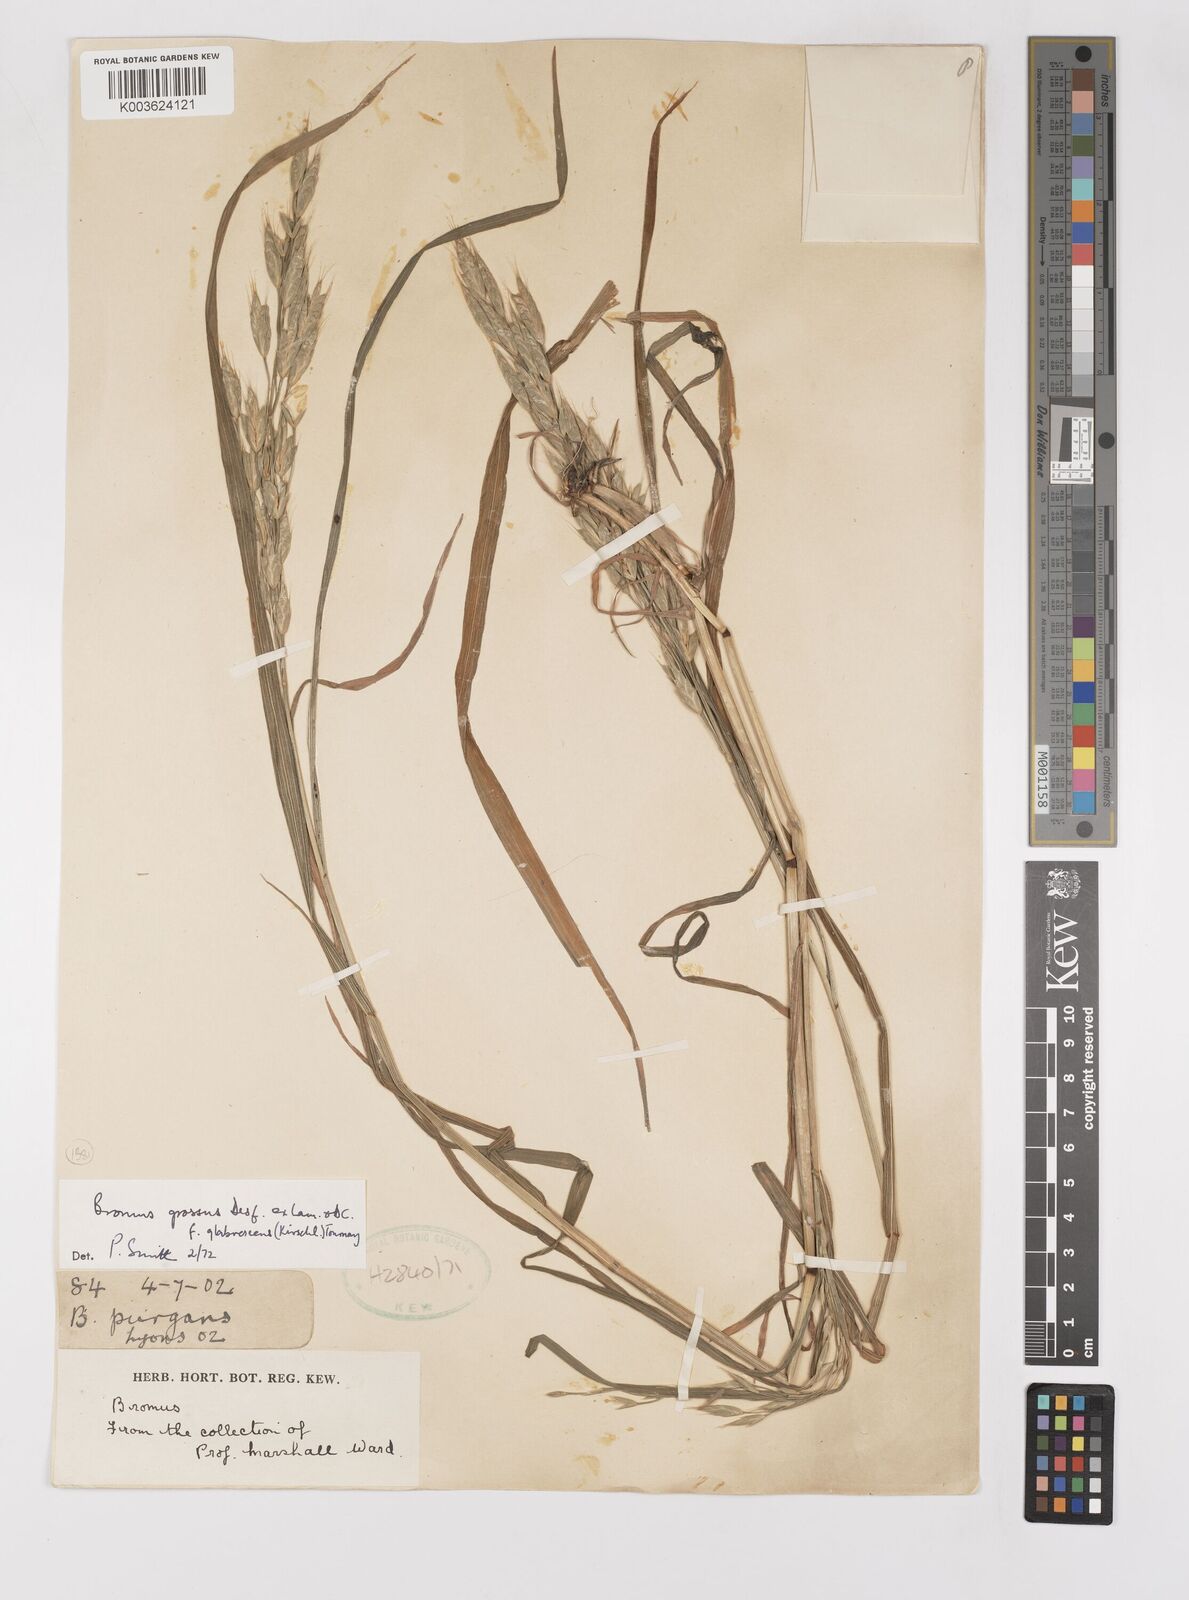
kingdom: Plantae
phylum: Tracheophyta
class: Liliopsida
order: Poales
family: Poaceae
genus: Bromus
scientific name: Bromus grossus
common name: Whiskered brome
